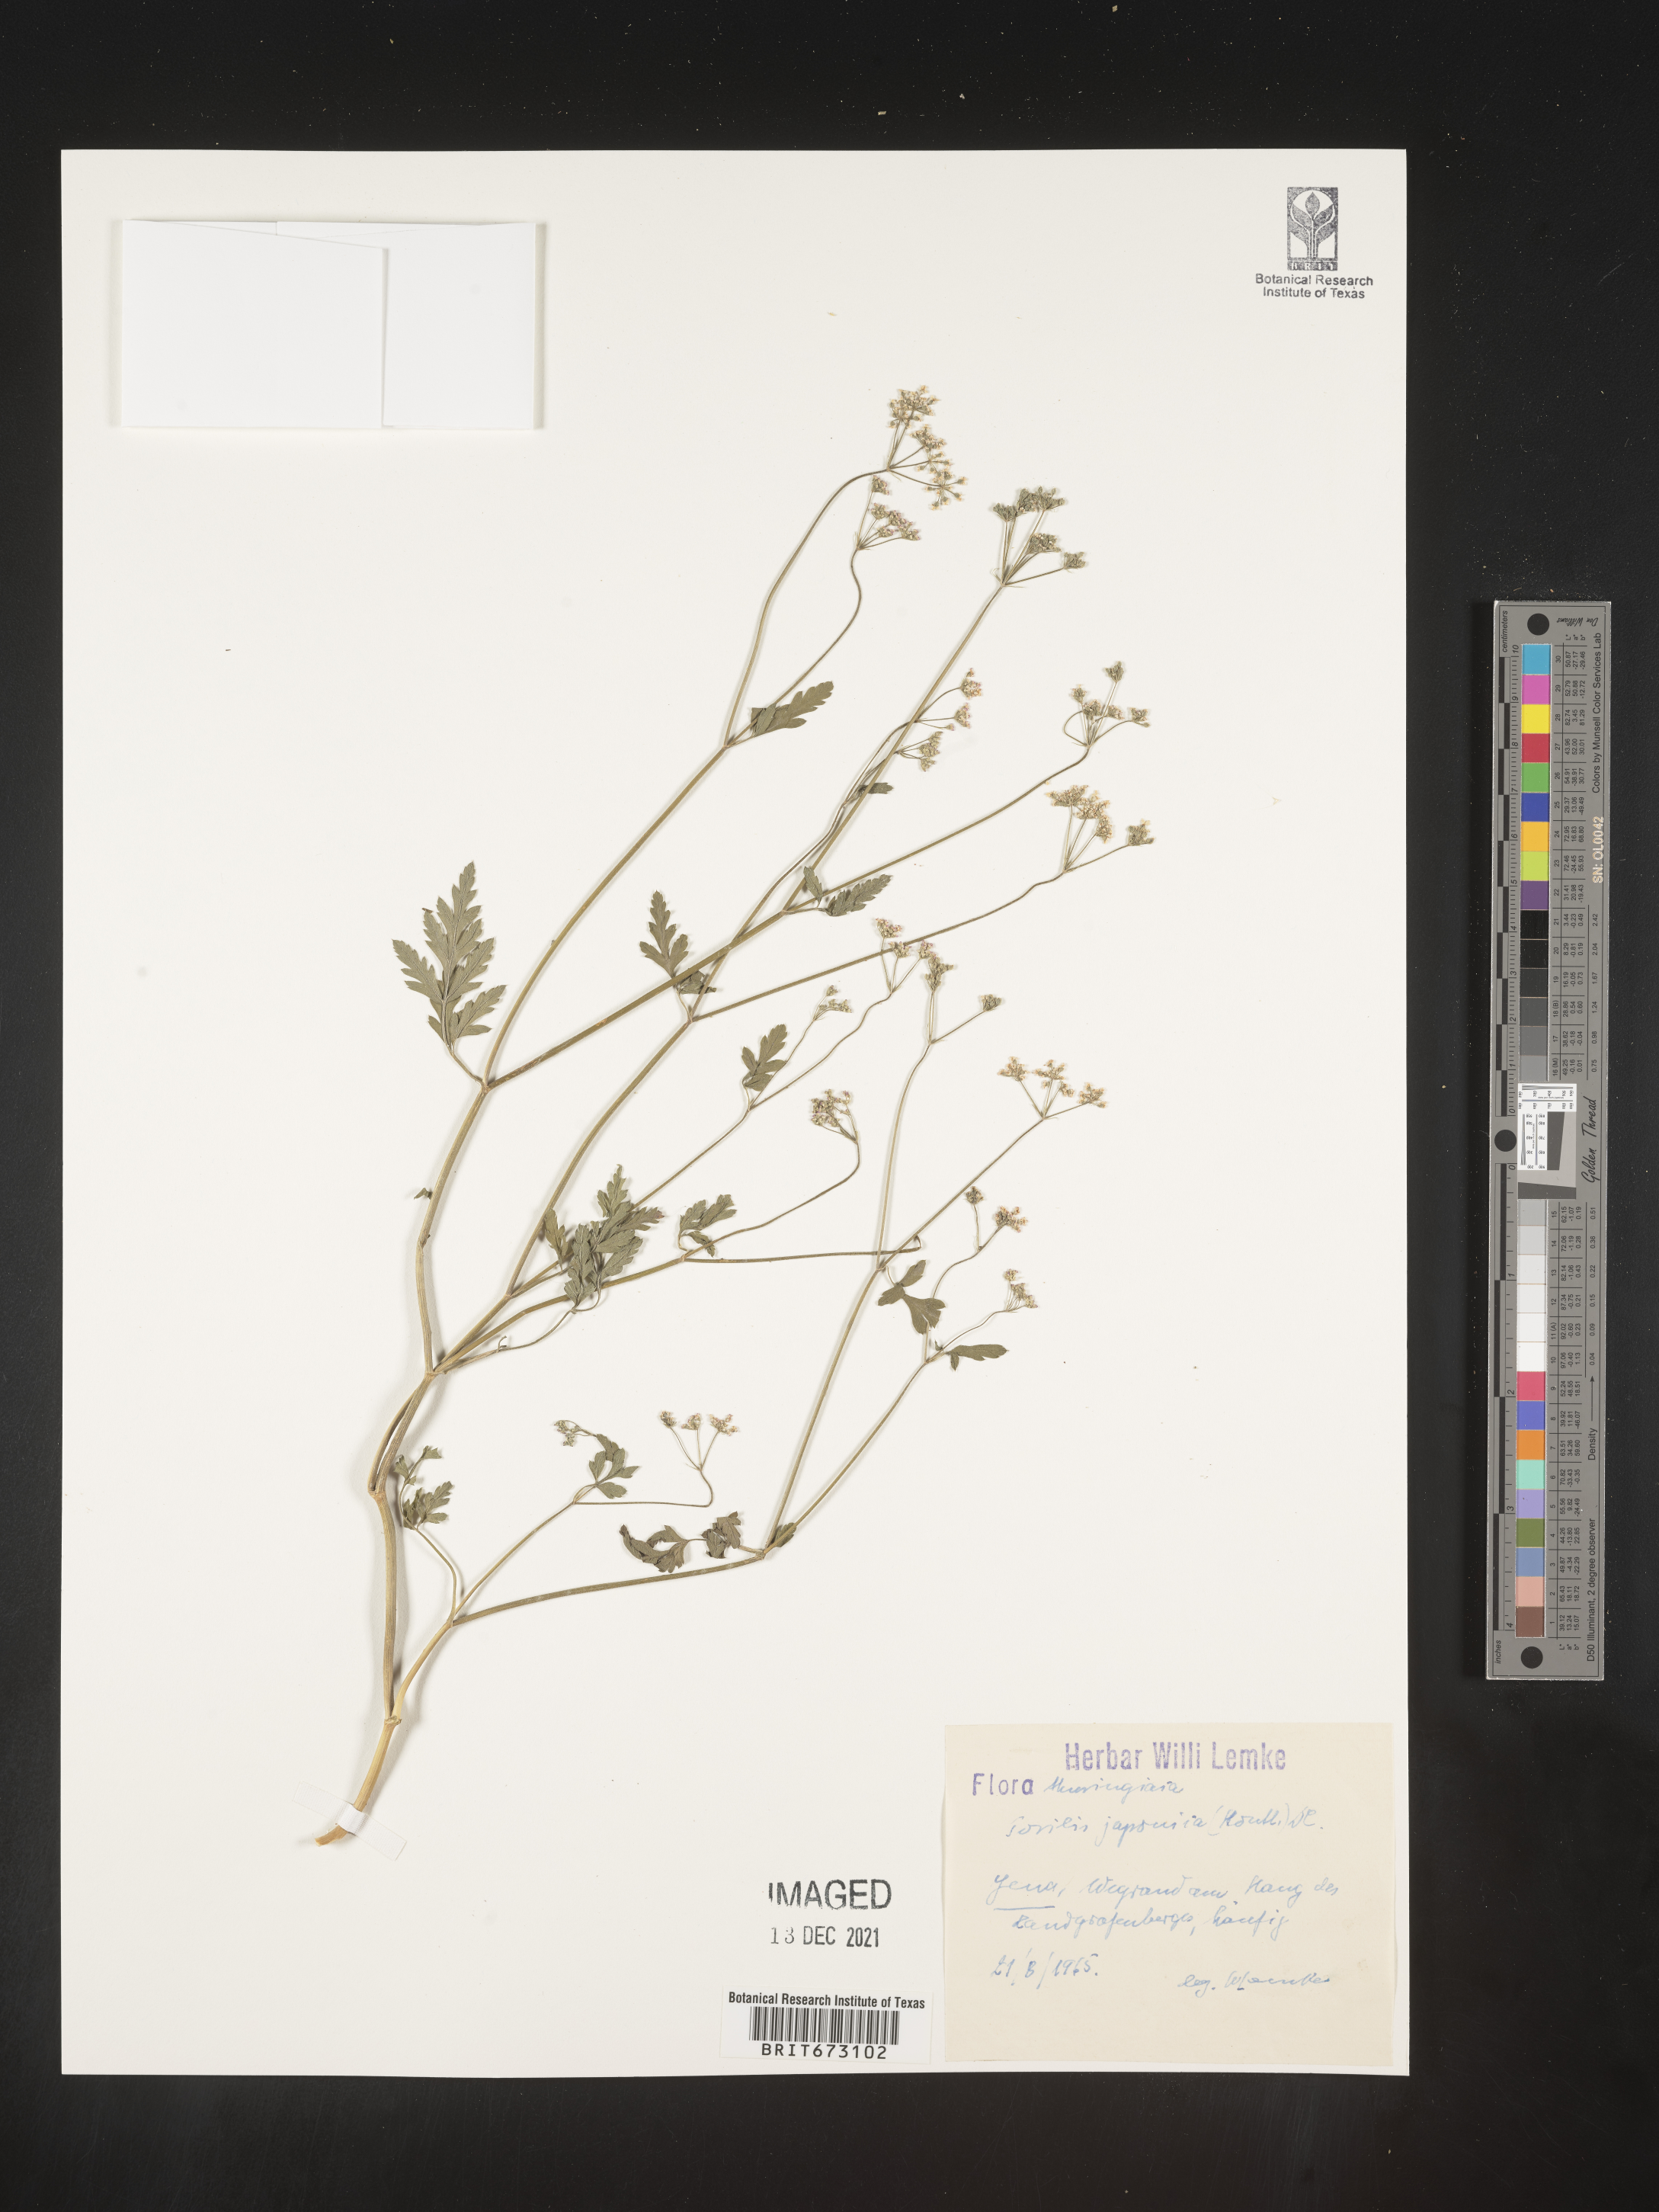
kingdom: Plantae
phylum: Tracheophyta
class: Magnoliopsida
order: Apiales
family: Apiaceae
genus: Torilis
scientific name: Torilis
